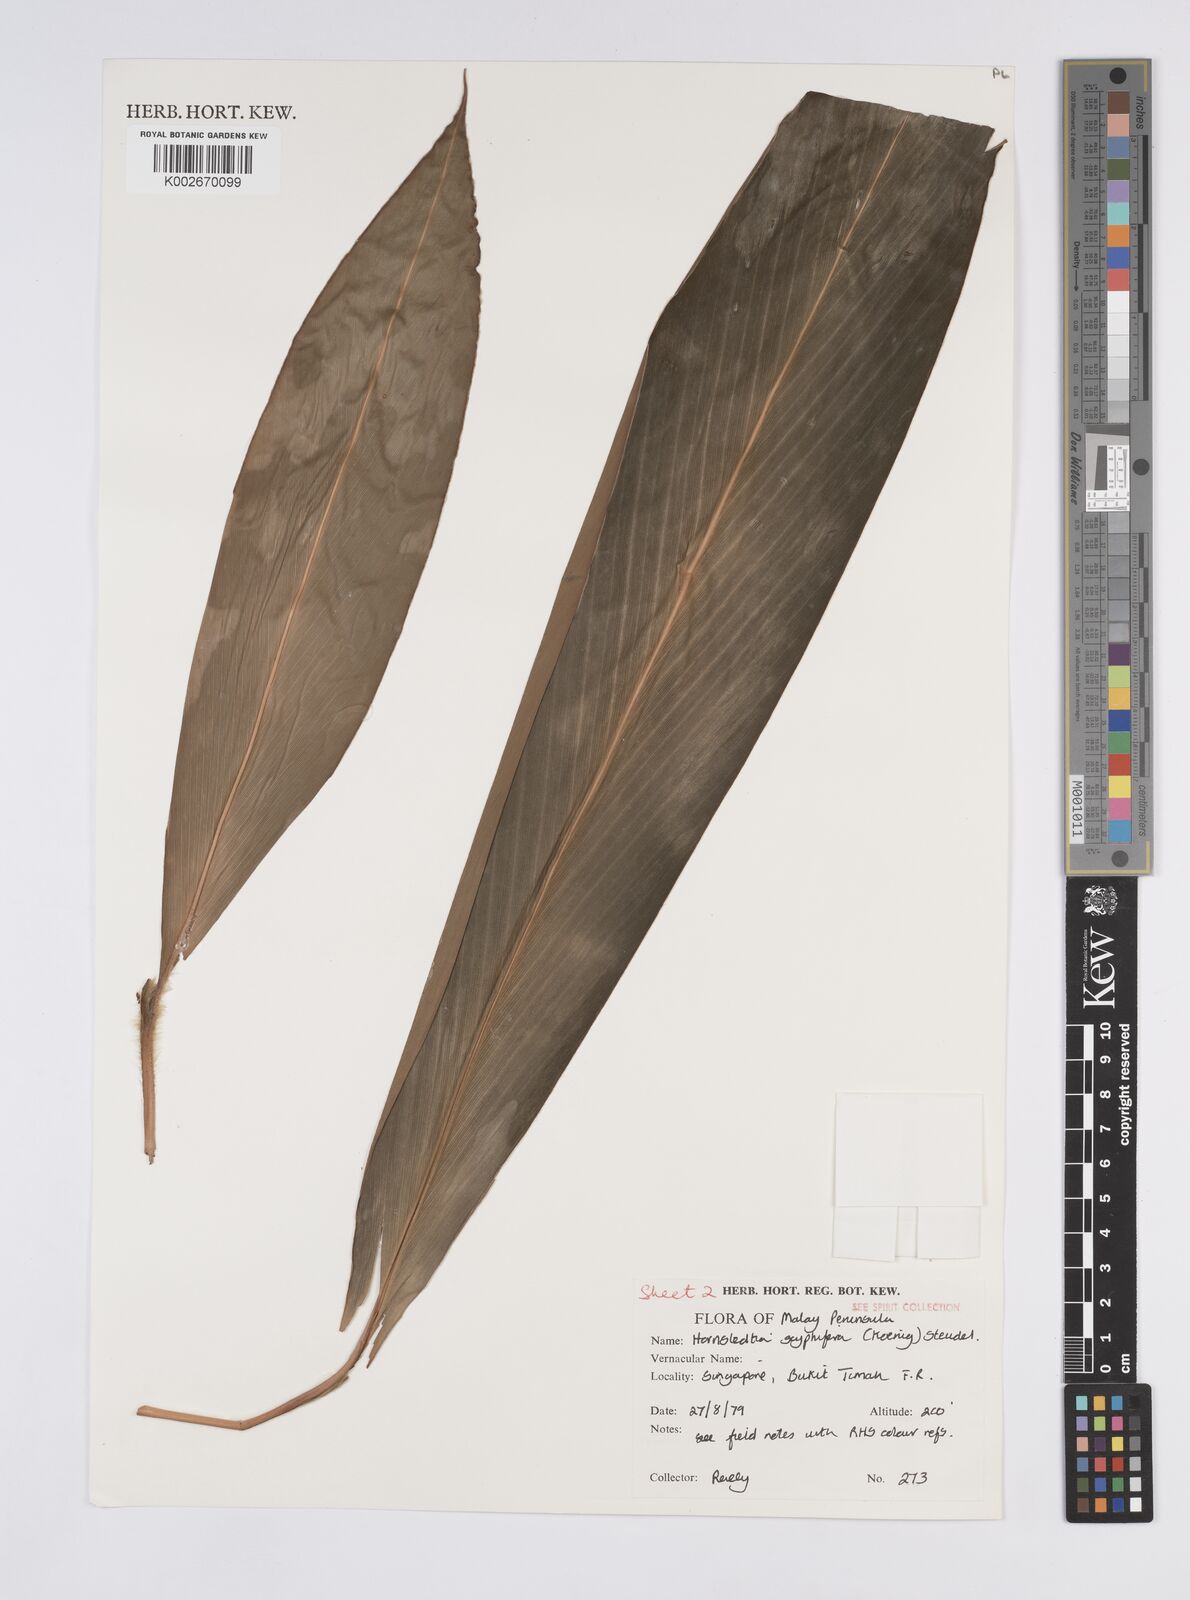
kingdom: Plantae
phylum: Tracheophyta
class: Liliopsida
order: Zingiberales
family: Zingiberaceae
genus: Hornstedtia
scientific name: Hornstedtia scyphifera
